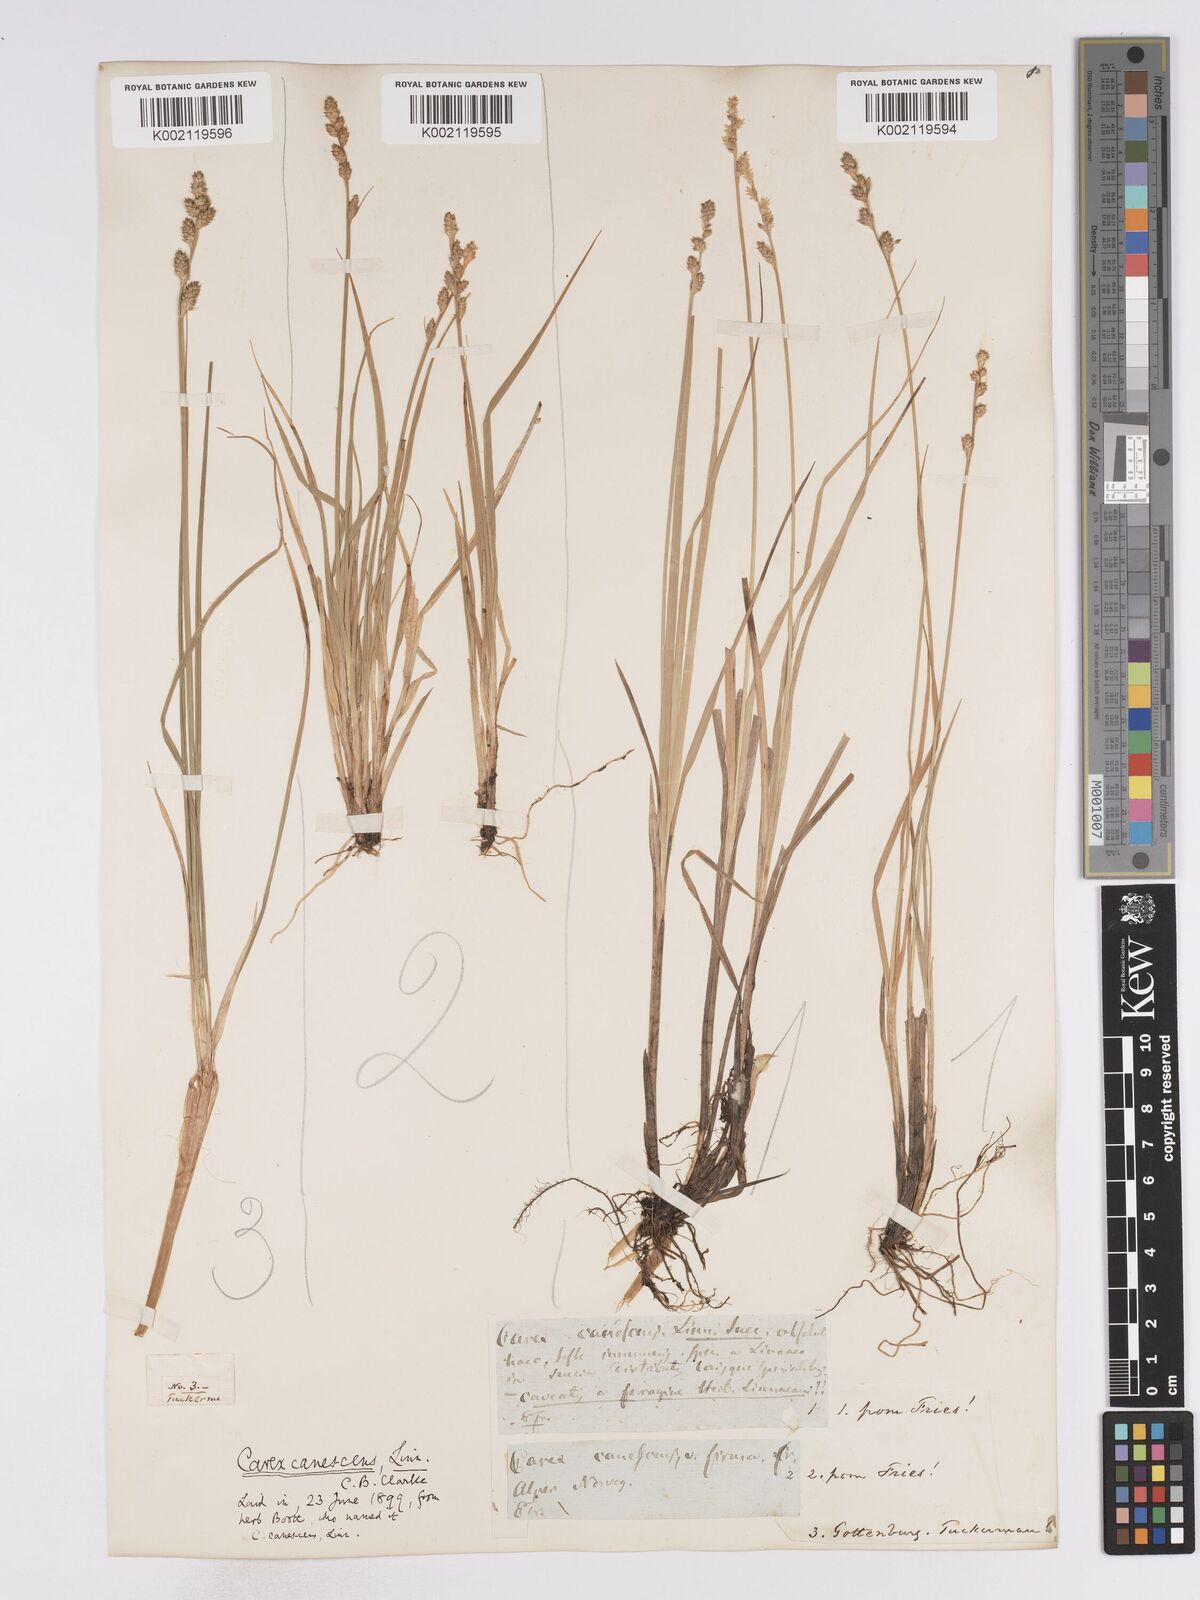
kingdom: Plantae
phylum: Tracheophyta
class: Liliopsida
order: Poales
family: Cyperaceae
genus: Carex
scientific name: Carex curta
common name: White sedge
